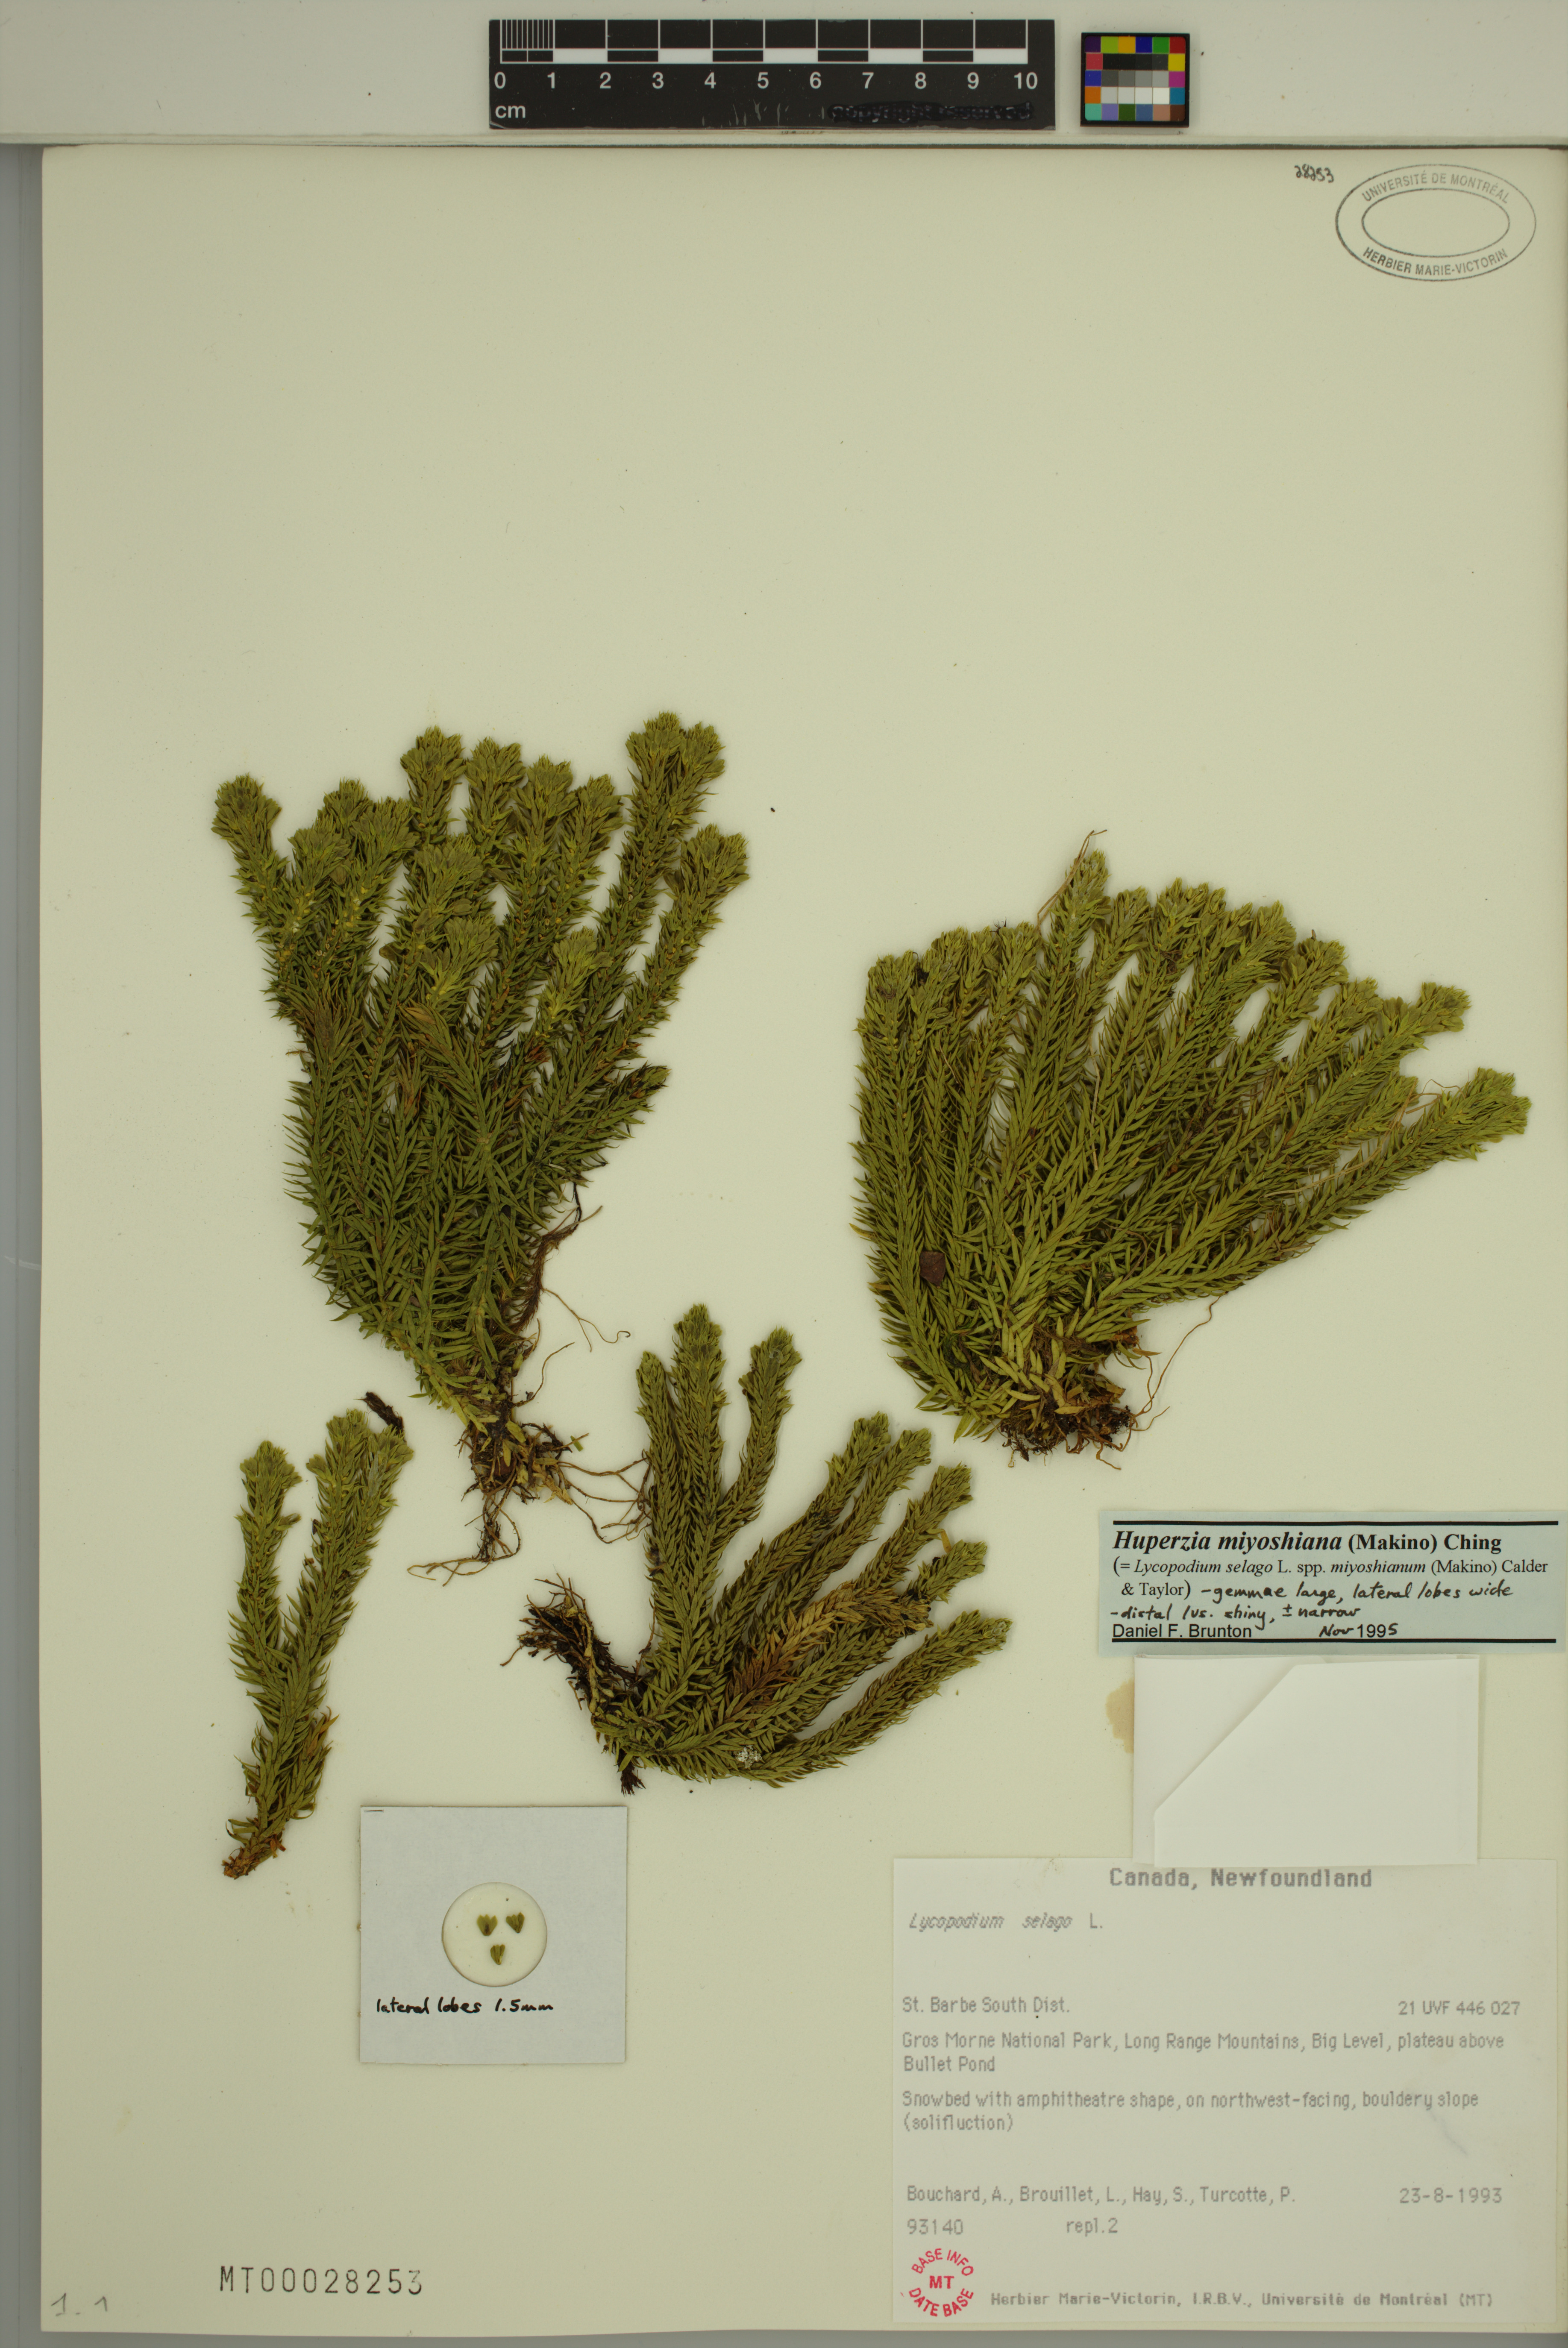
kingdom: Plantae
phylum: Tracheophyta
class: Lycopodiopsida
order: Lycopodiales
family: Lycopodiaceae
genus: Huperzia
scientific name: Huperzia miyoshiana
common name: Chinese clubmoss
